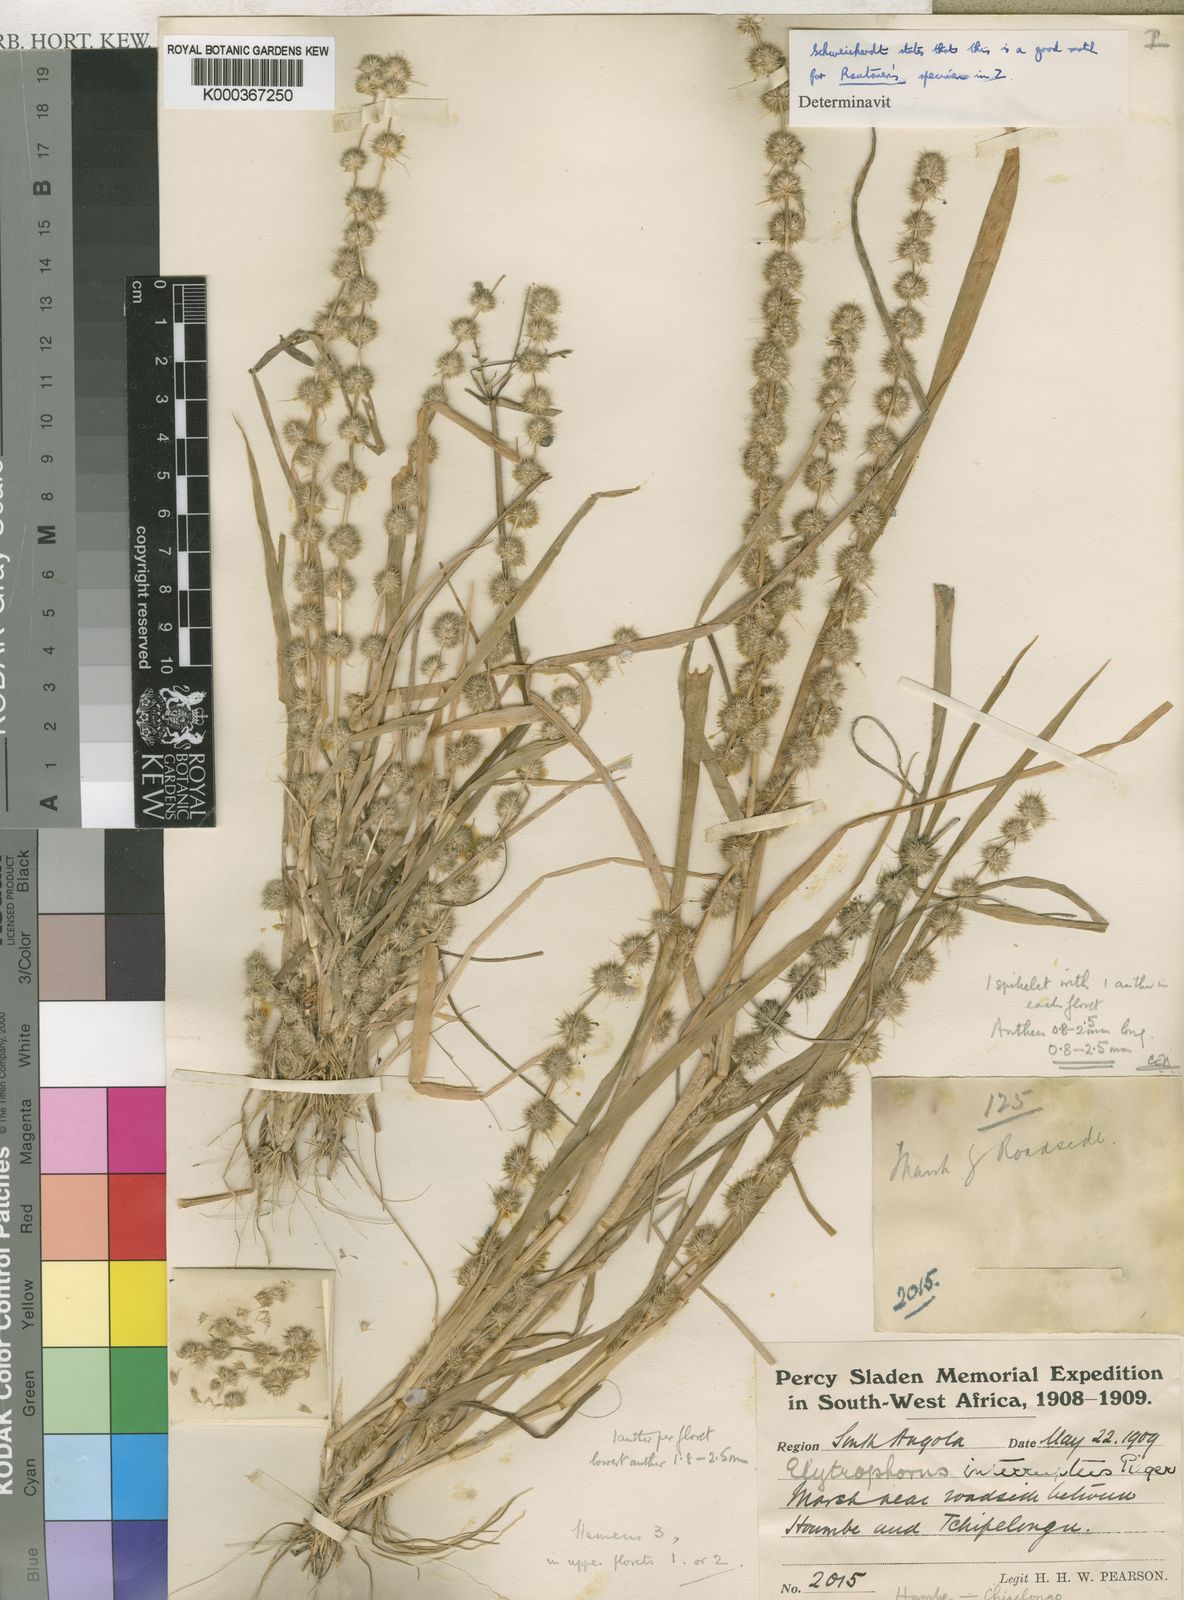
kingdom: Plantae
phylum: Tracheophyta
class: Liliopsida
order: Poales
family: Poaceae
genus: Elytrophorus
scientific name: Elytrophorus globularis
